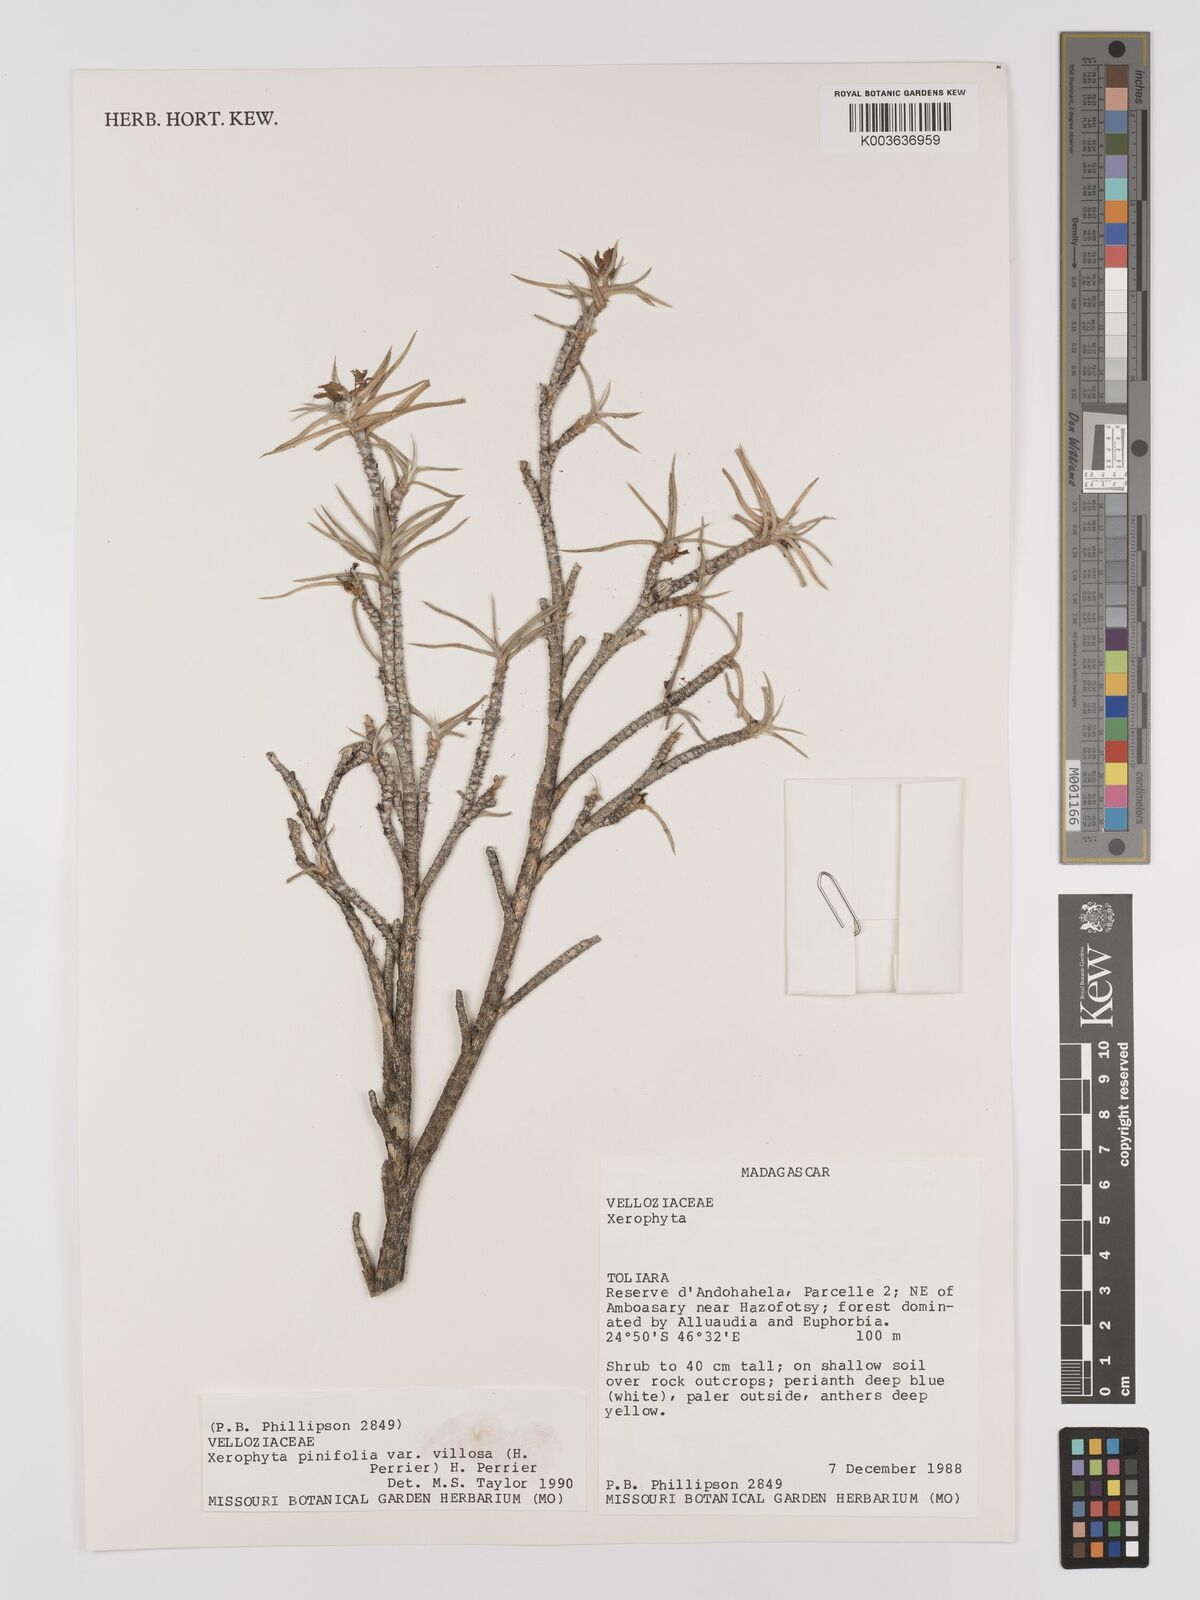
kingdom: Plantae
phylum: Tracheophyta
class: Liliopsida
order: Pandanales
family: Velloziaceae
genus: Xerophyta
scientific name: Xerophyta
